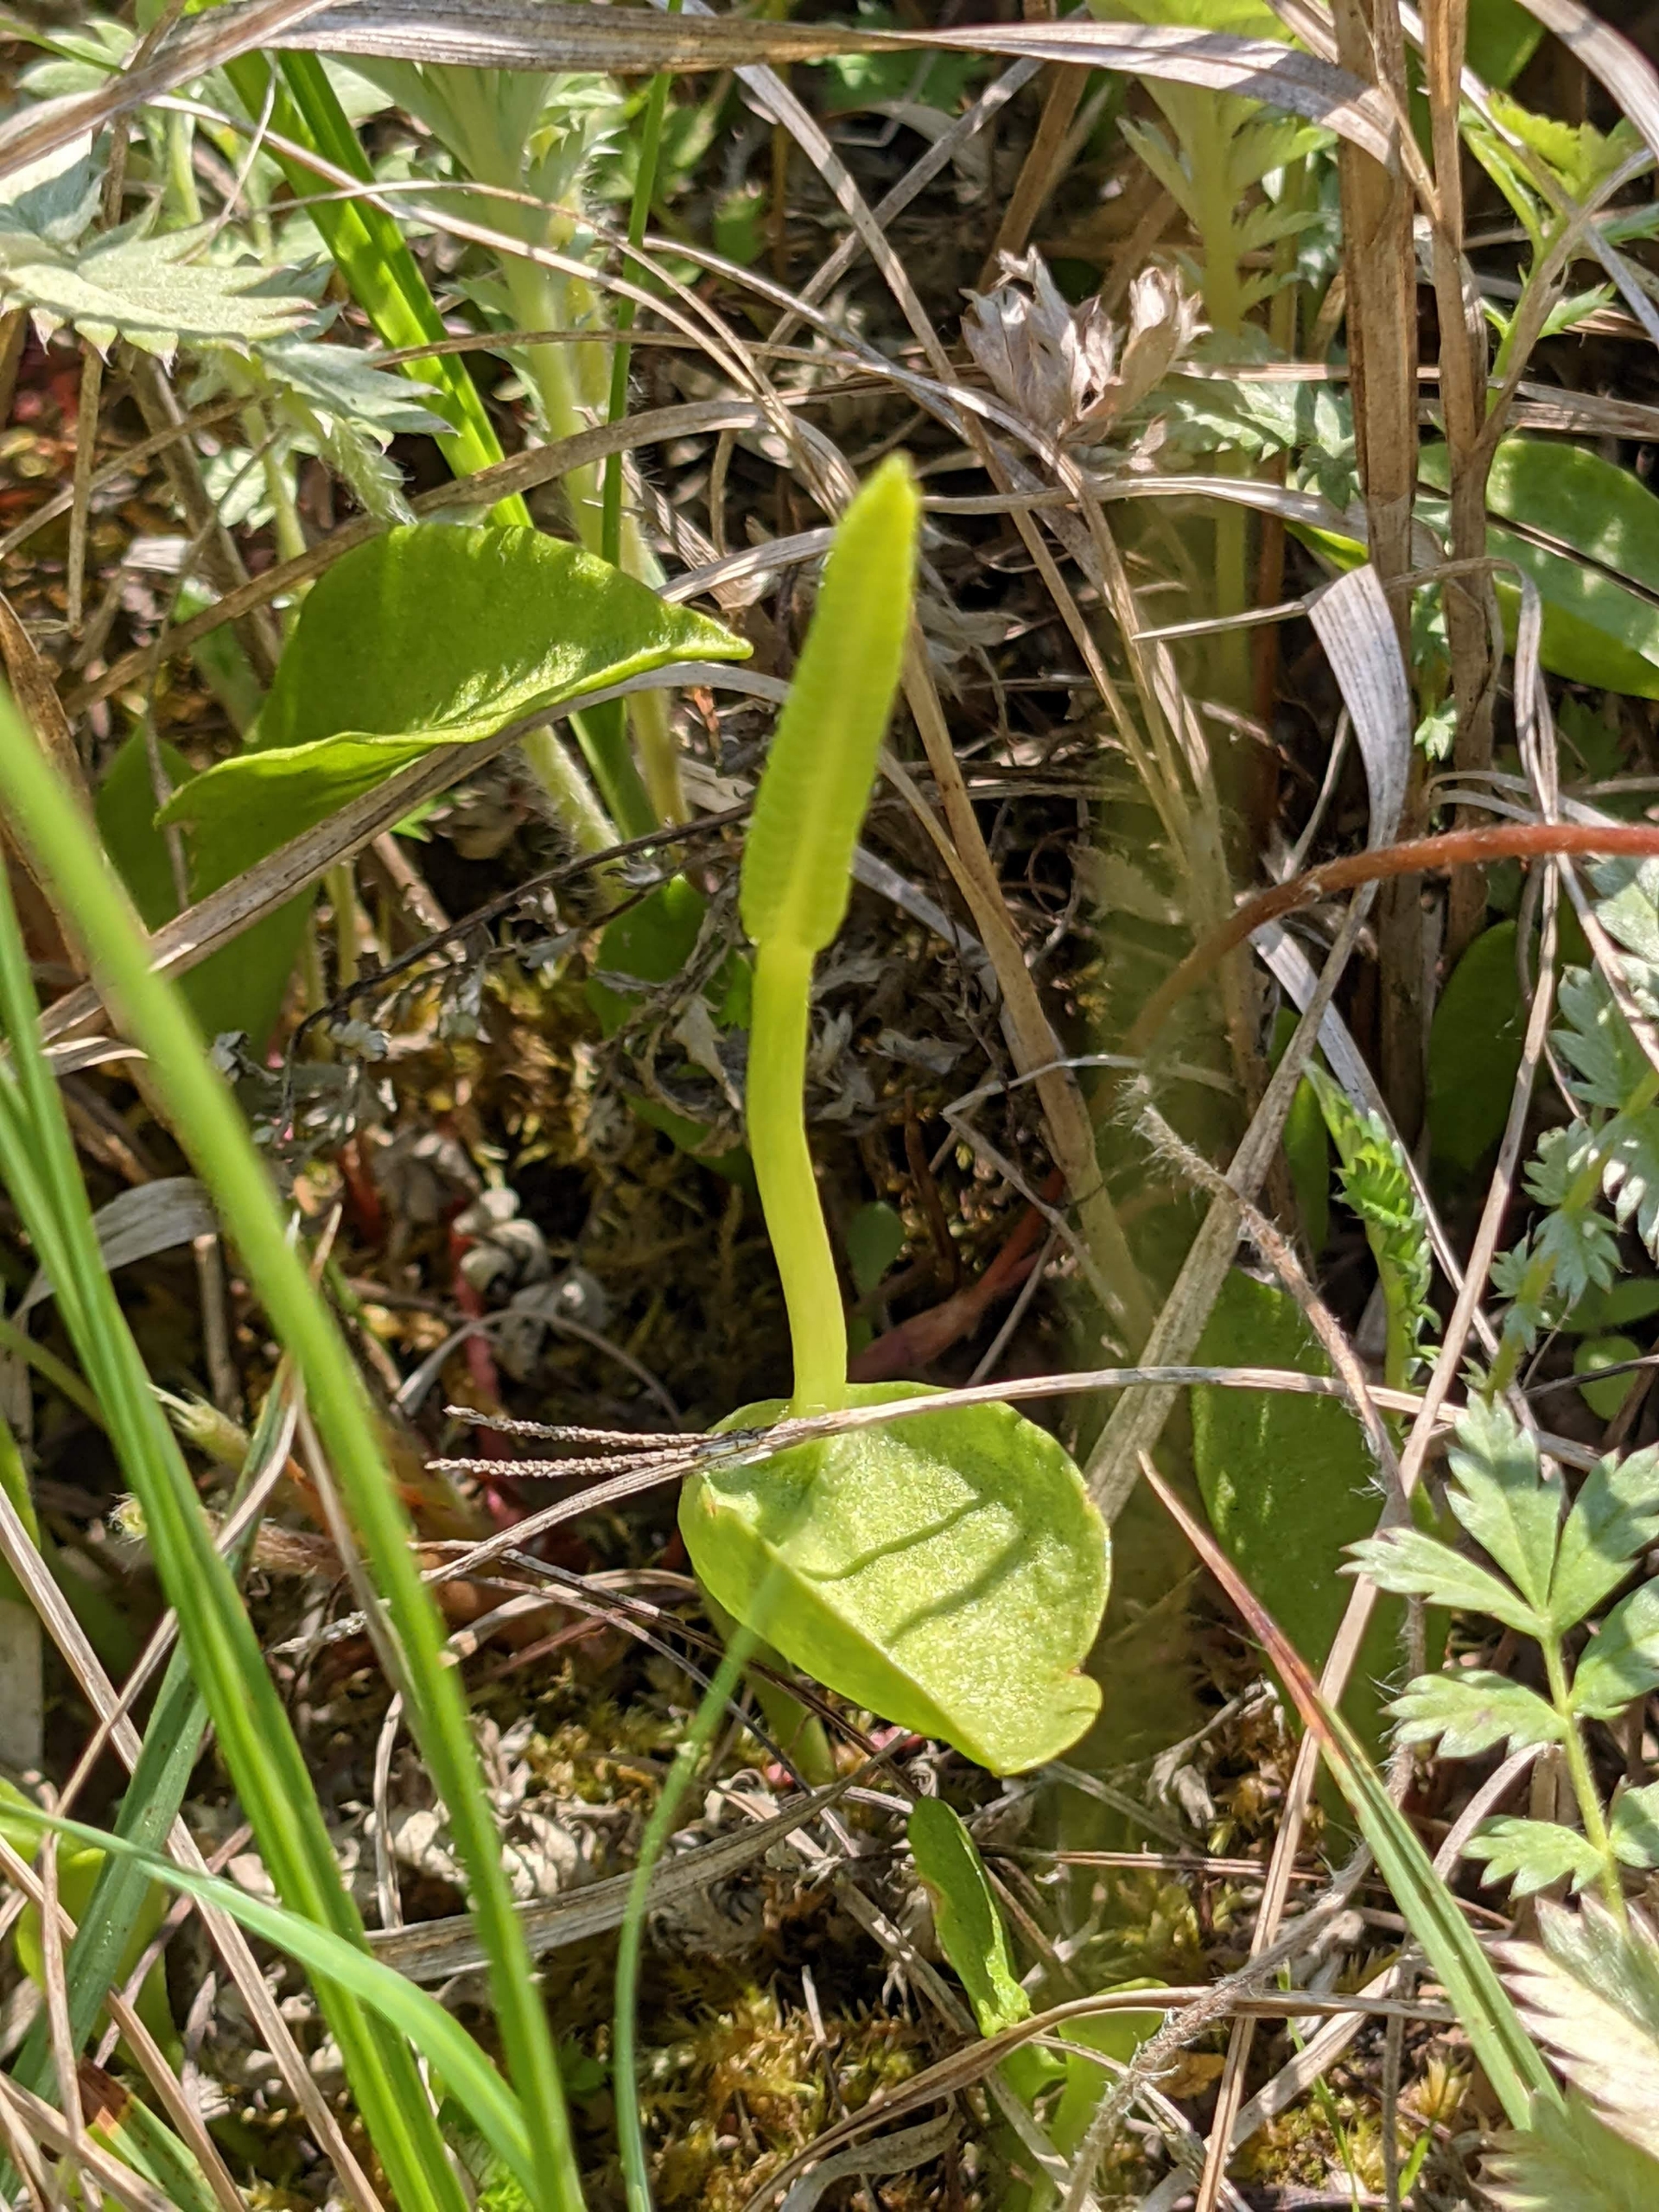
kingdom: Plantae
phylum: Tracheophyta
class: Polypodiopsida
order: Ophioglossales
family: Ophioglossaceae
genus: Ophioglossum
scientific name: Ophioglossum vulgatum
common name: Slangetunge
